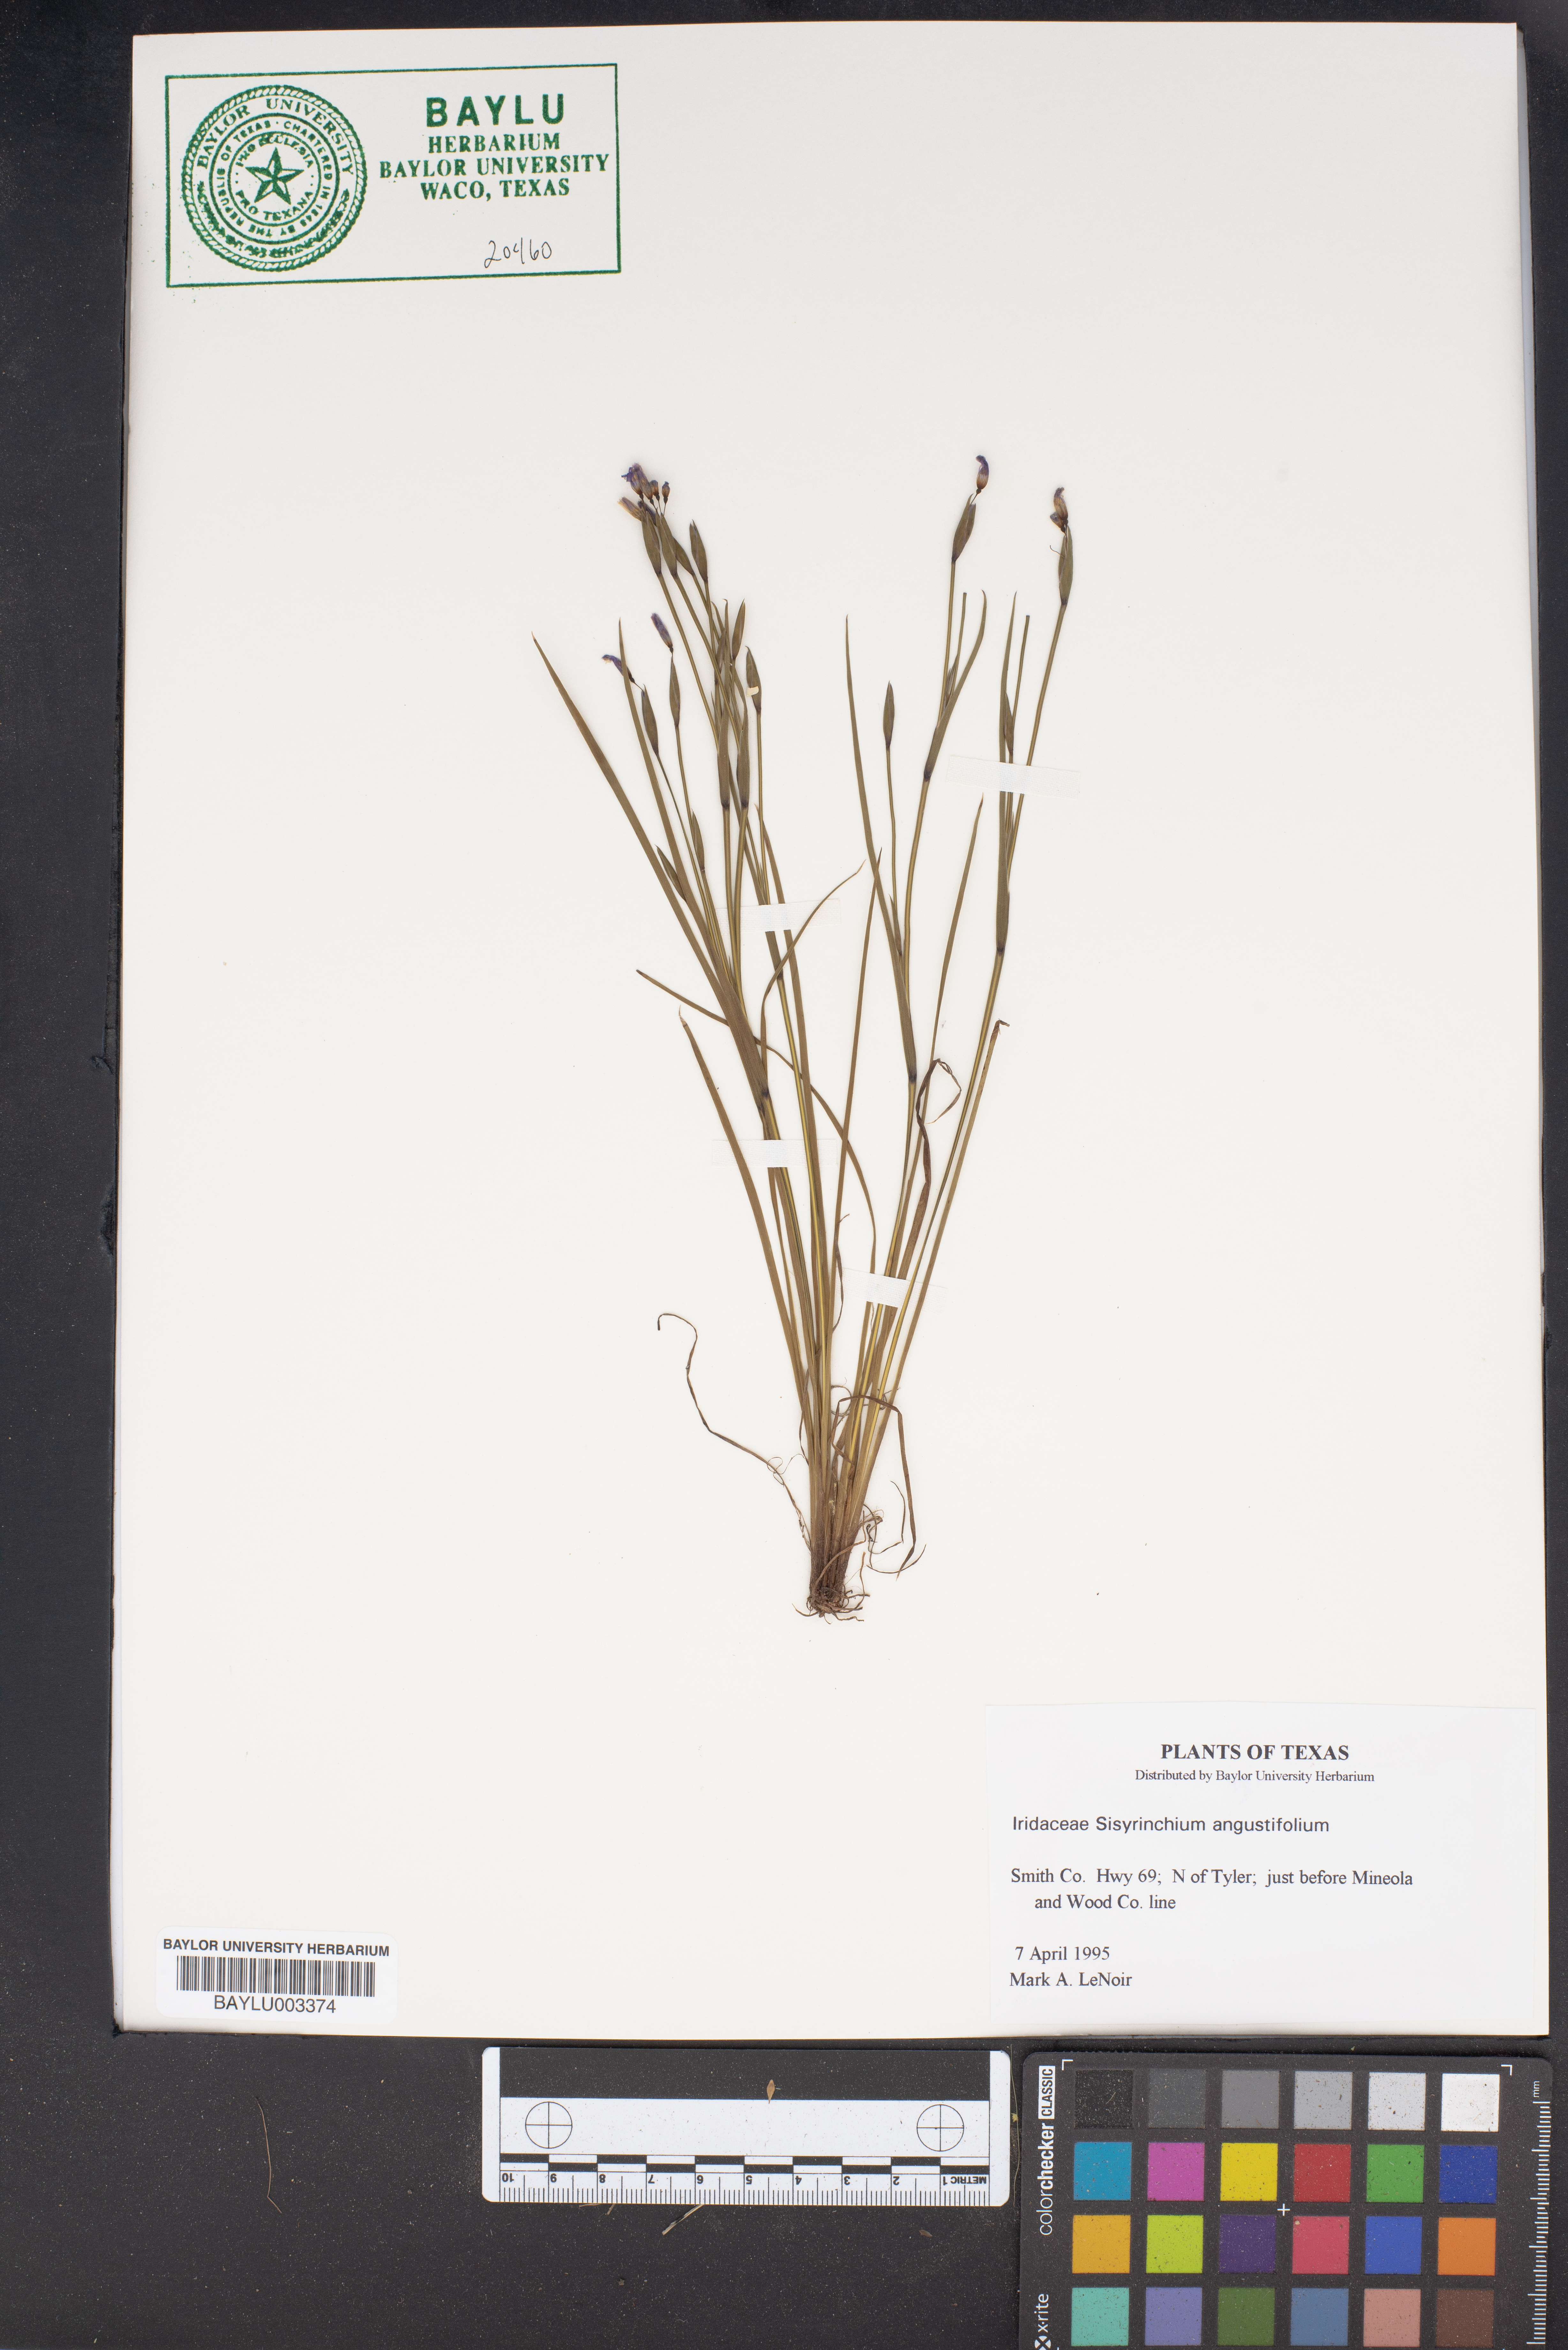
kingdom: Plantae
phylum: Tracheophyta
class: Liliopsida
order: Asparagales
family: Iridaceae
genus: Sisyrinchium
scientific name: Sisyrinchium angustifolium
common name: Narrow-leaf blue-eyed-grass
